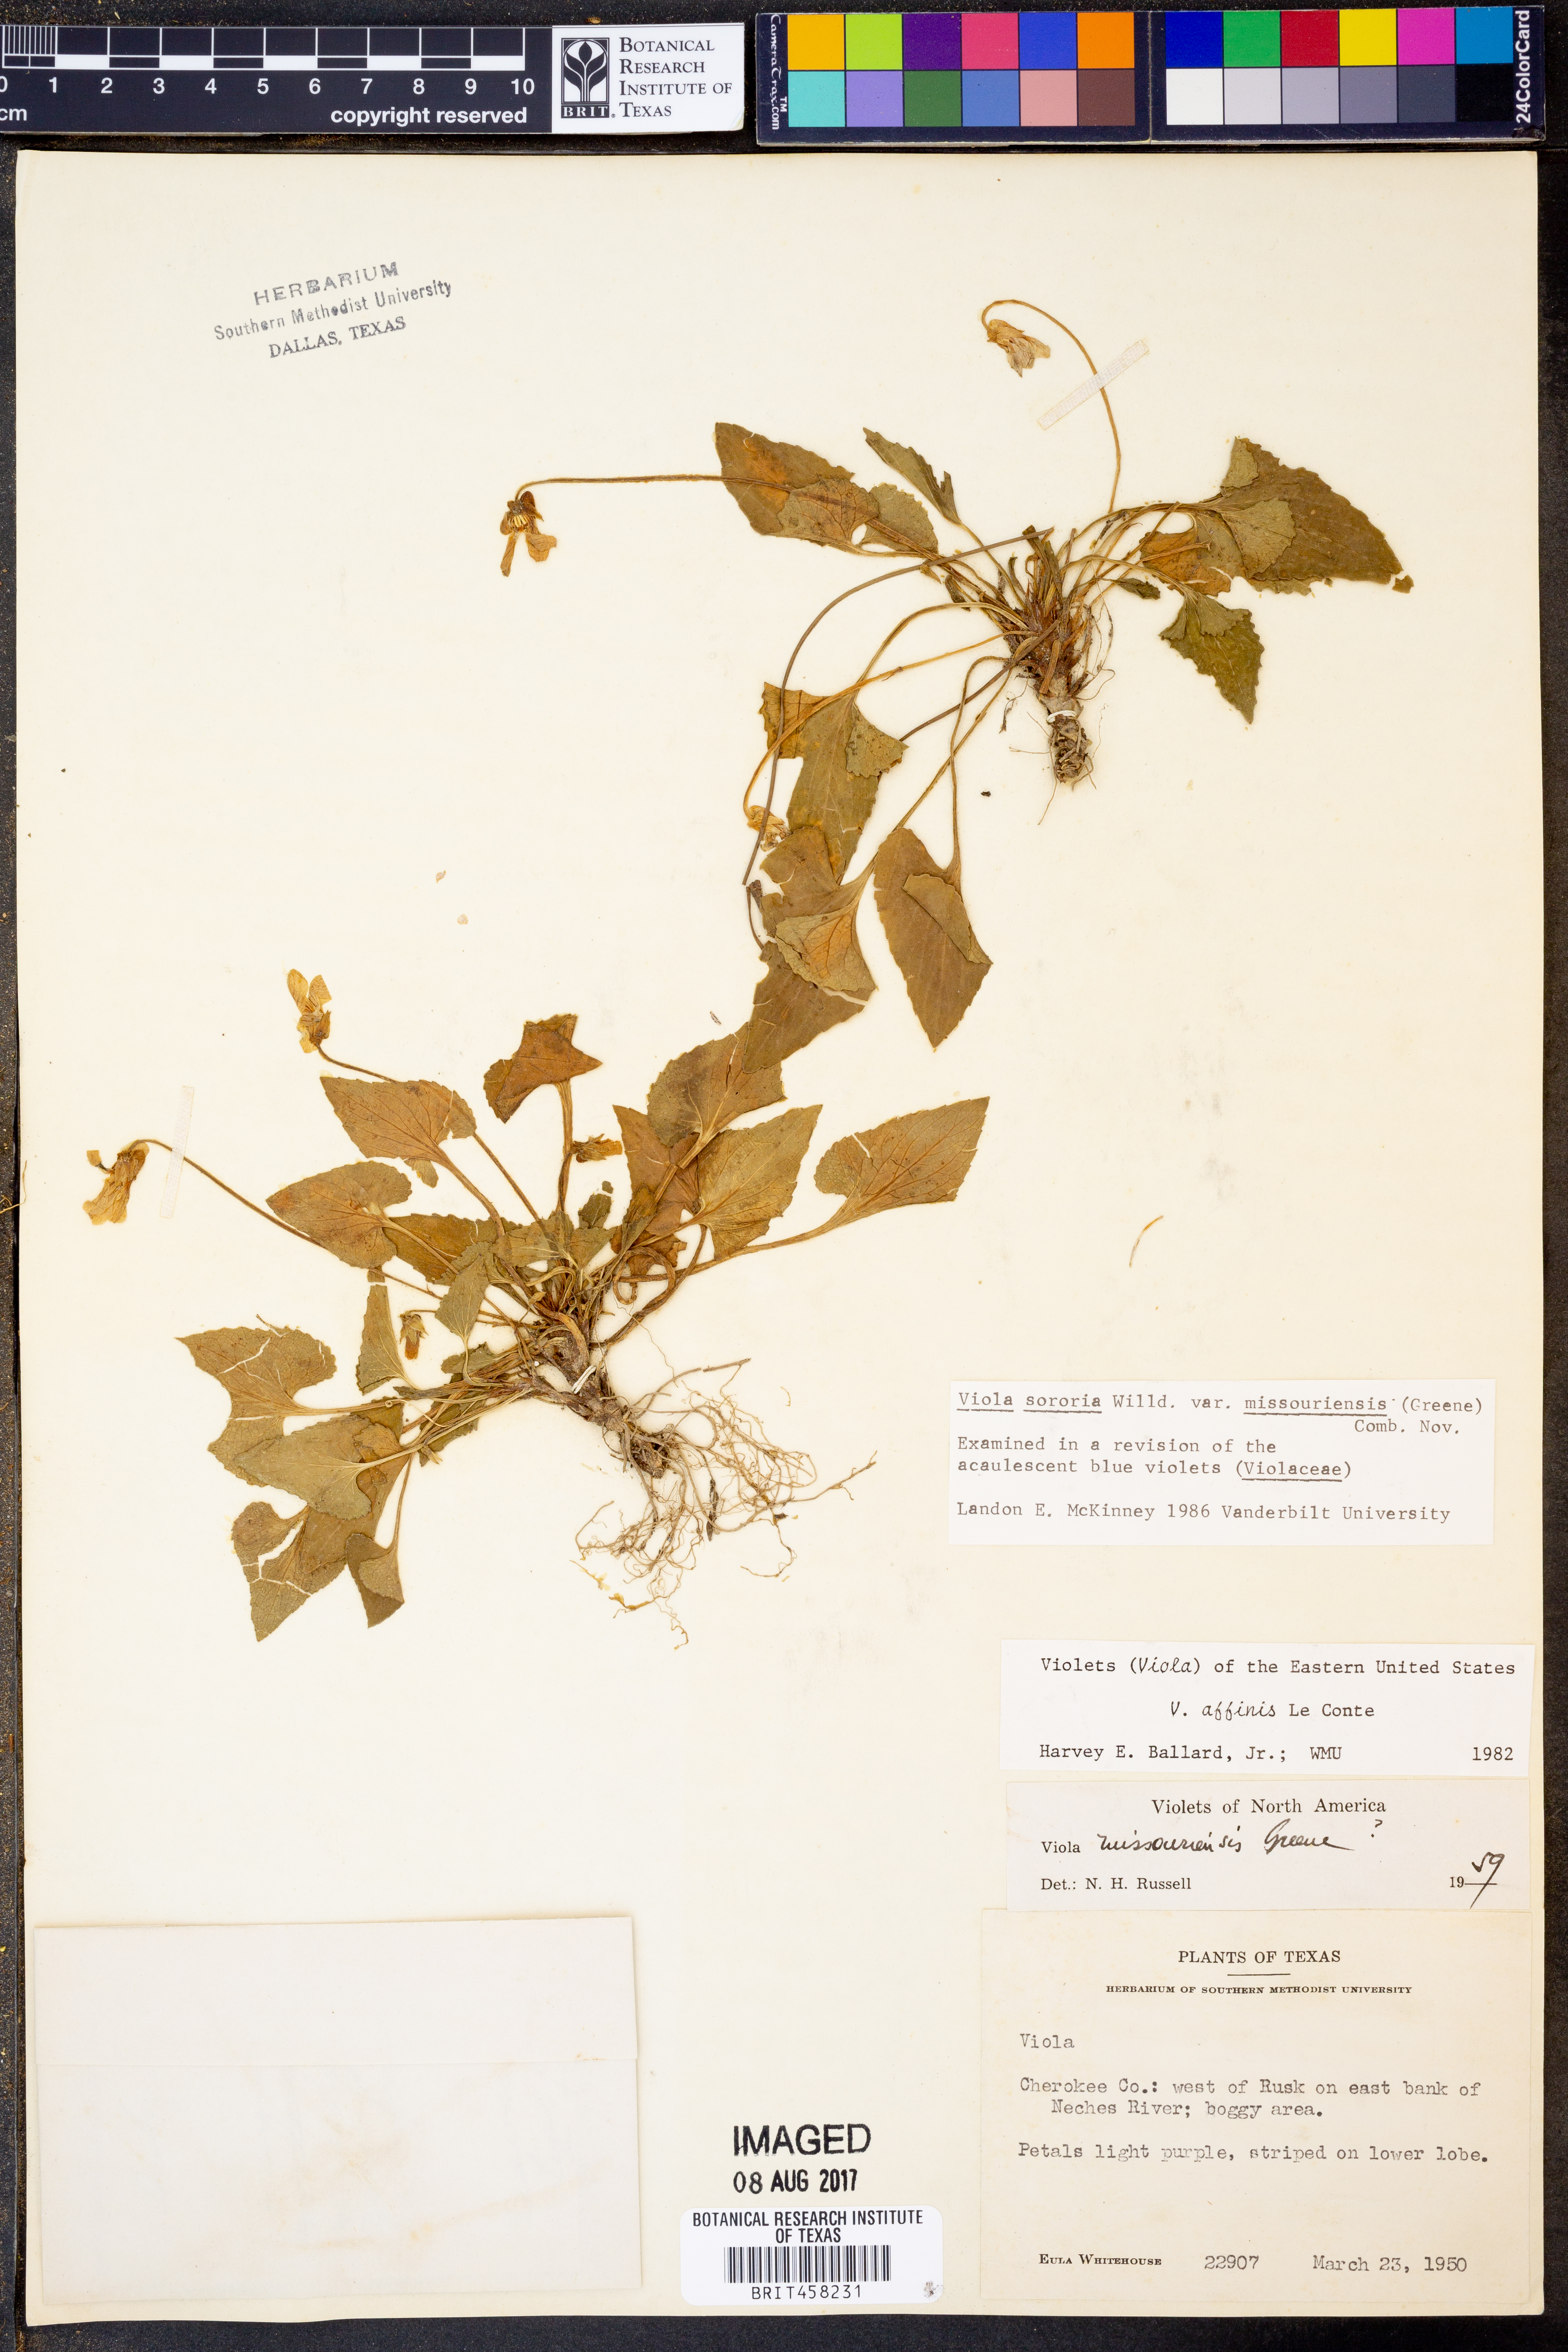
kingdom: Plantae
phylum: Tracheophyta
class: Magnoliopsida
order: Malpighiales
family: Violaceae
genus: Viola
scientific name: Viola affinis
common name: Leconte's violet
